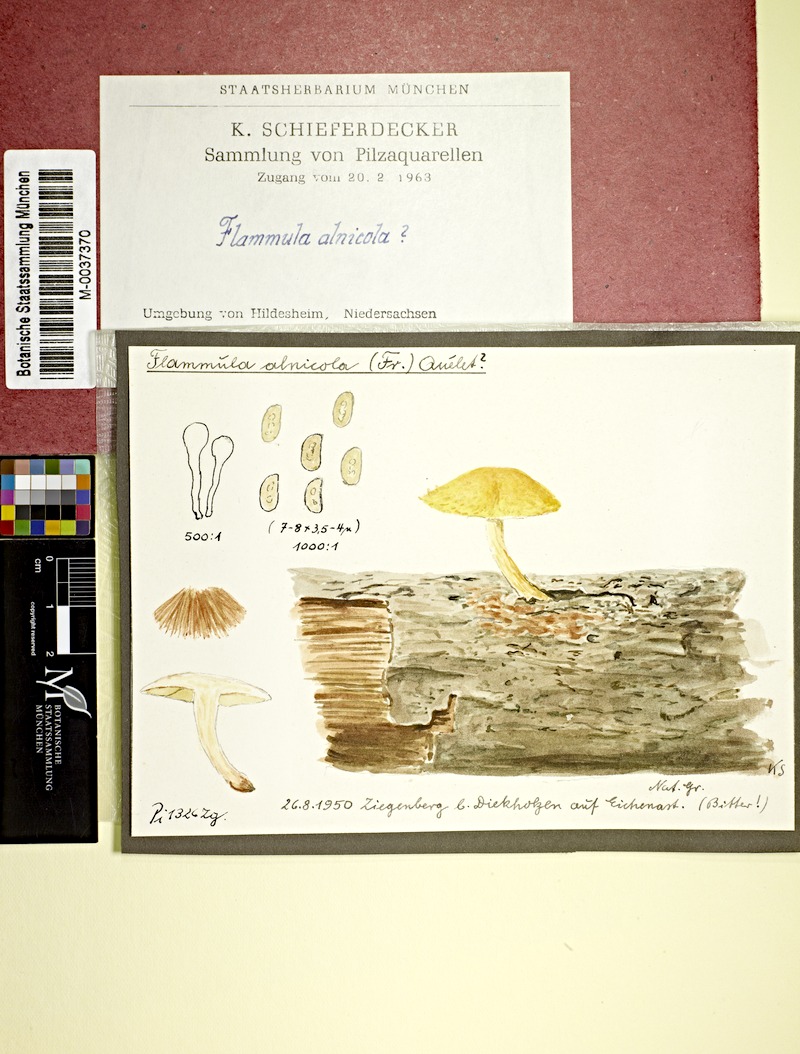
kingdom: Plantae
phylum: Tracheophyta
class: Magnoliopsida
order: Fagales
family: Fagaceae
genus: Quercus
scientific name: Quercus
